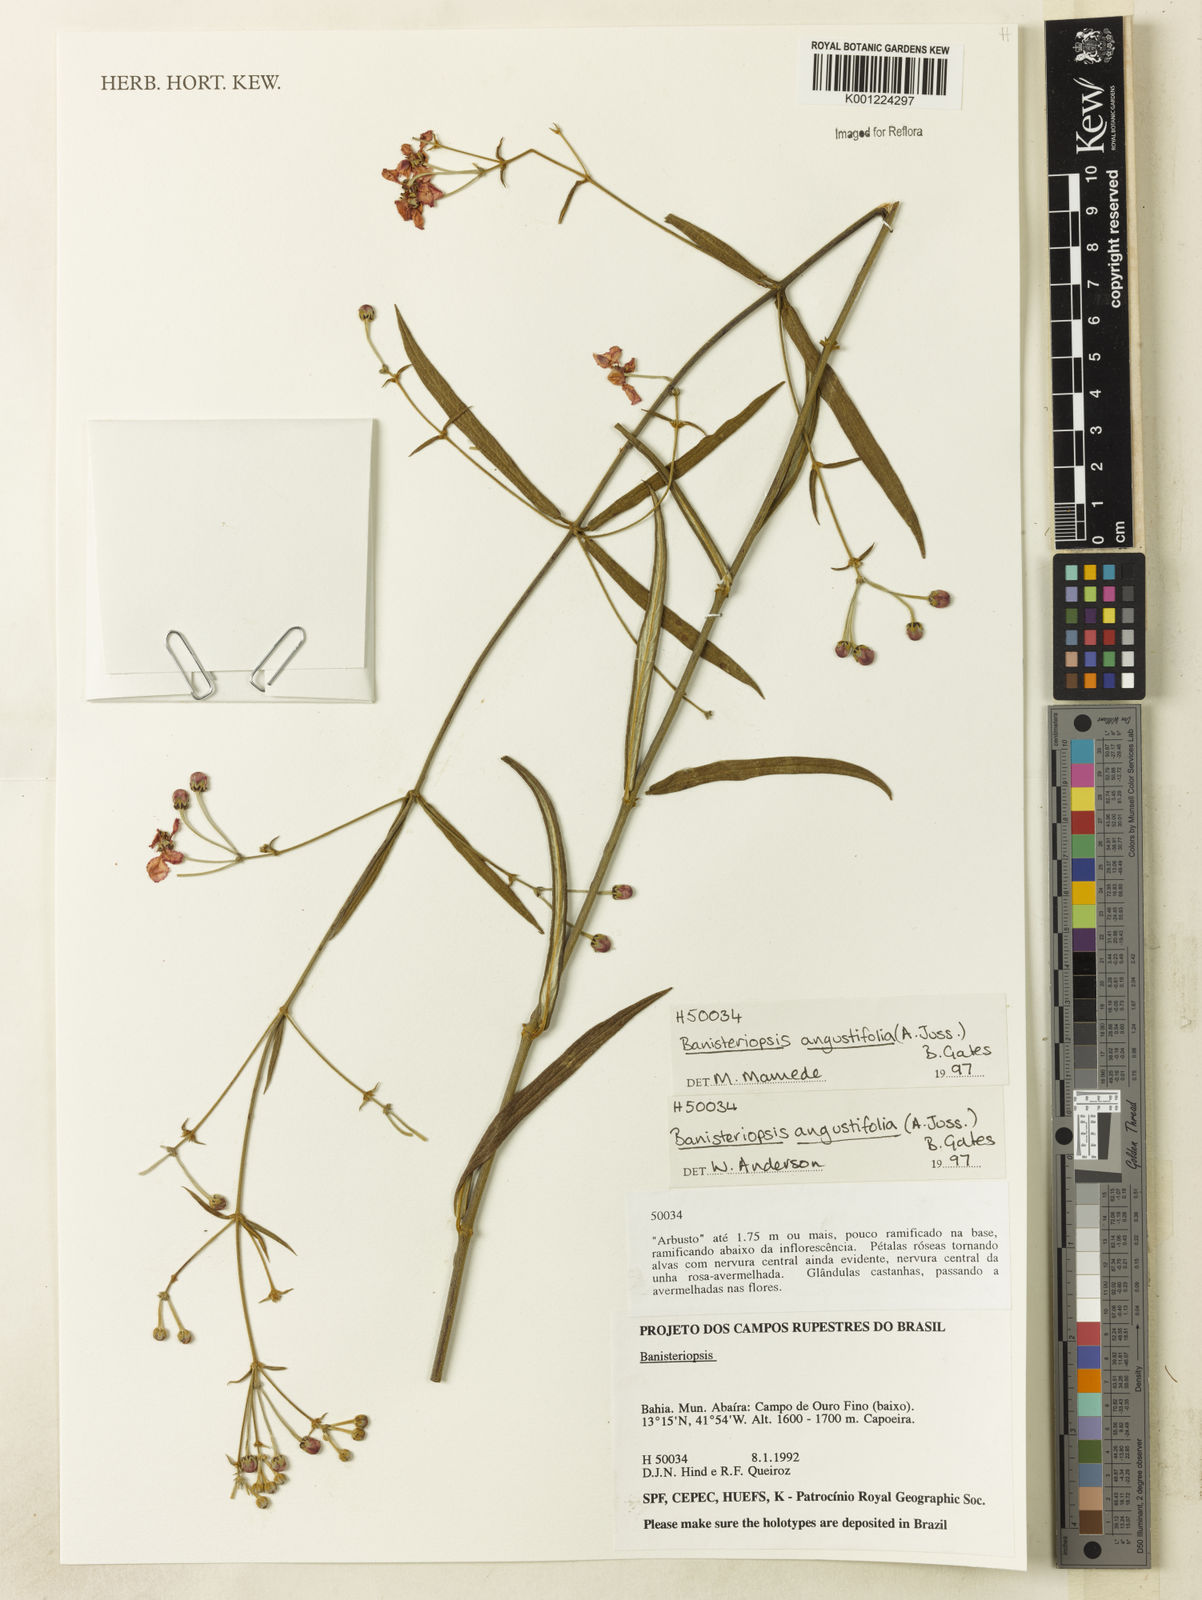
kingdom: Plantae
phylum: Tracheophyta
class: Magnoliopsida
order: Malpighiales
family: Malpighiaceae
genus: Banisteriopsis
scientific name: Banisteriopsis angustifolia
